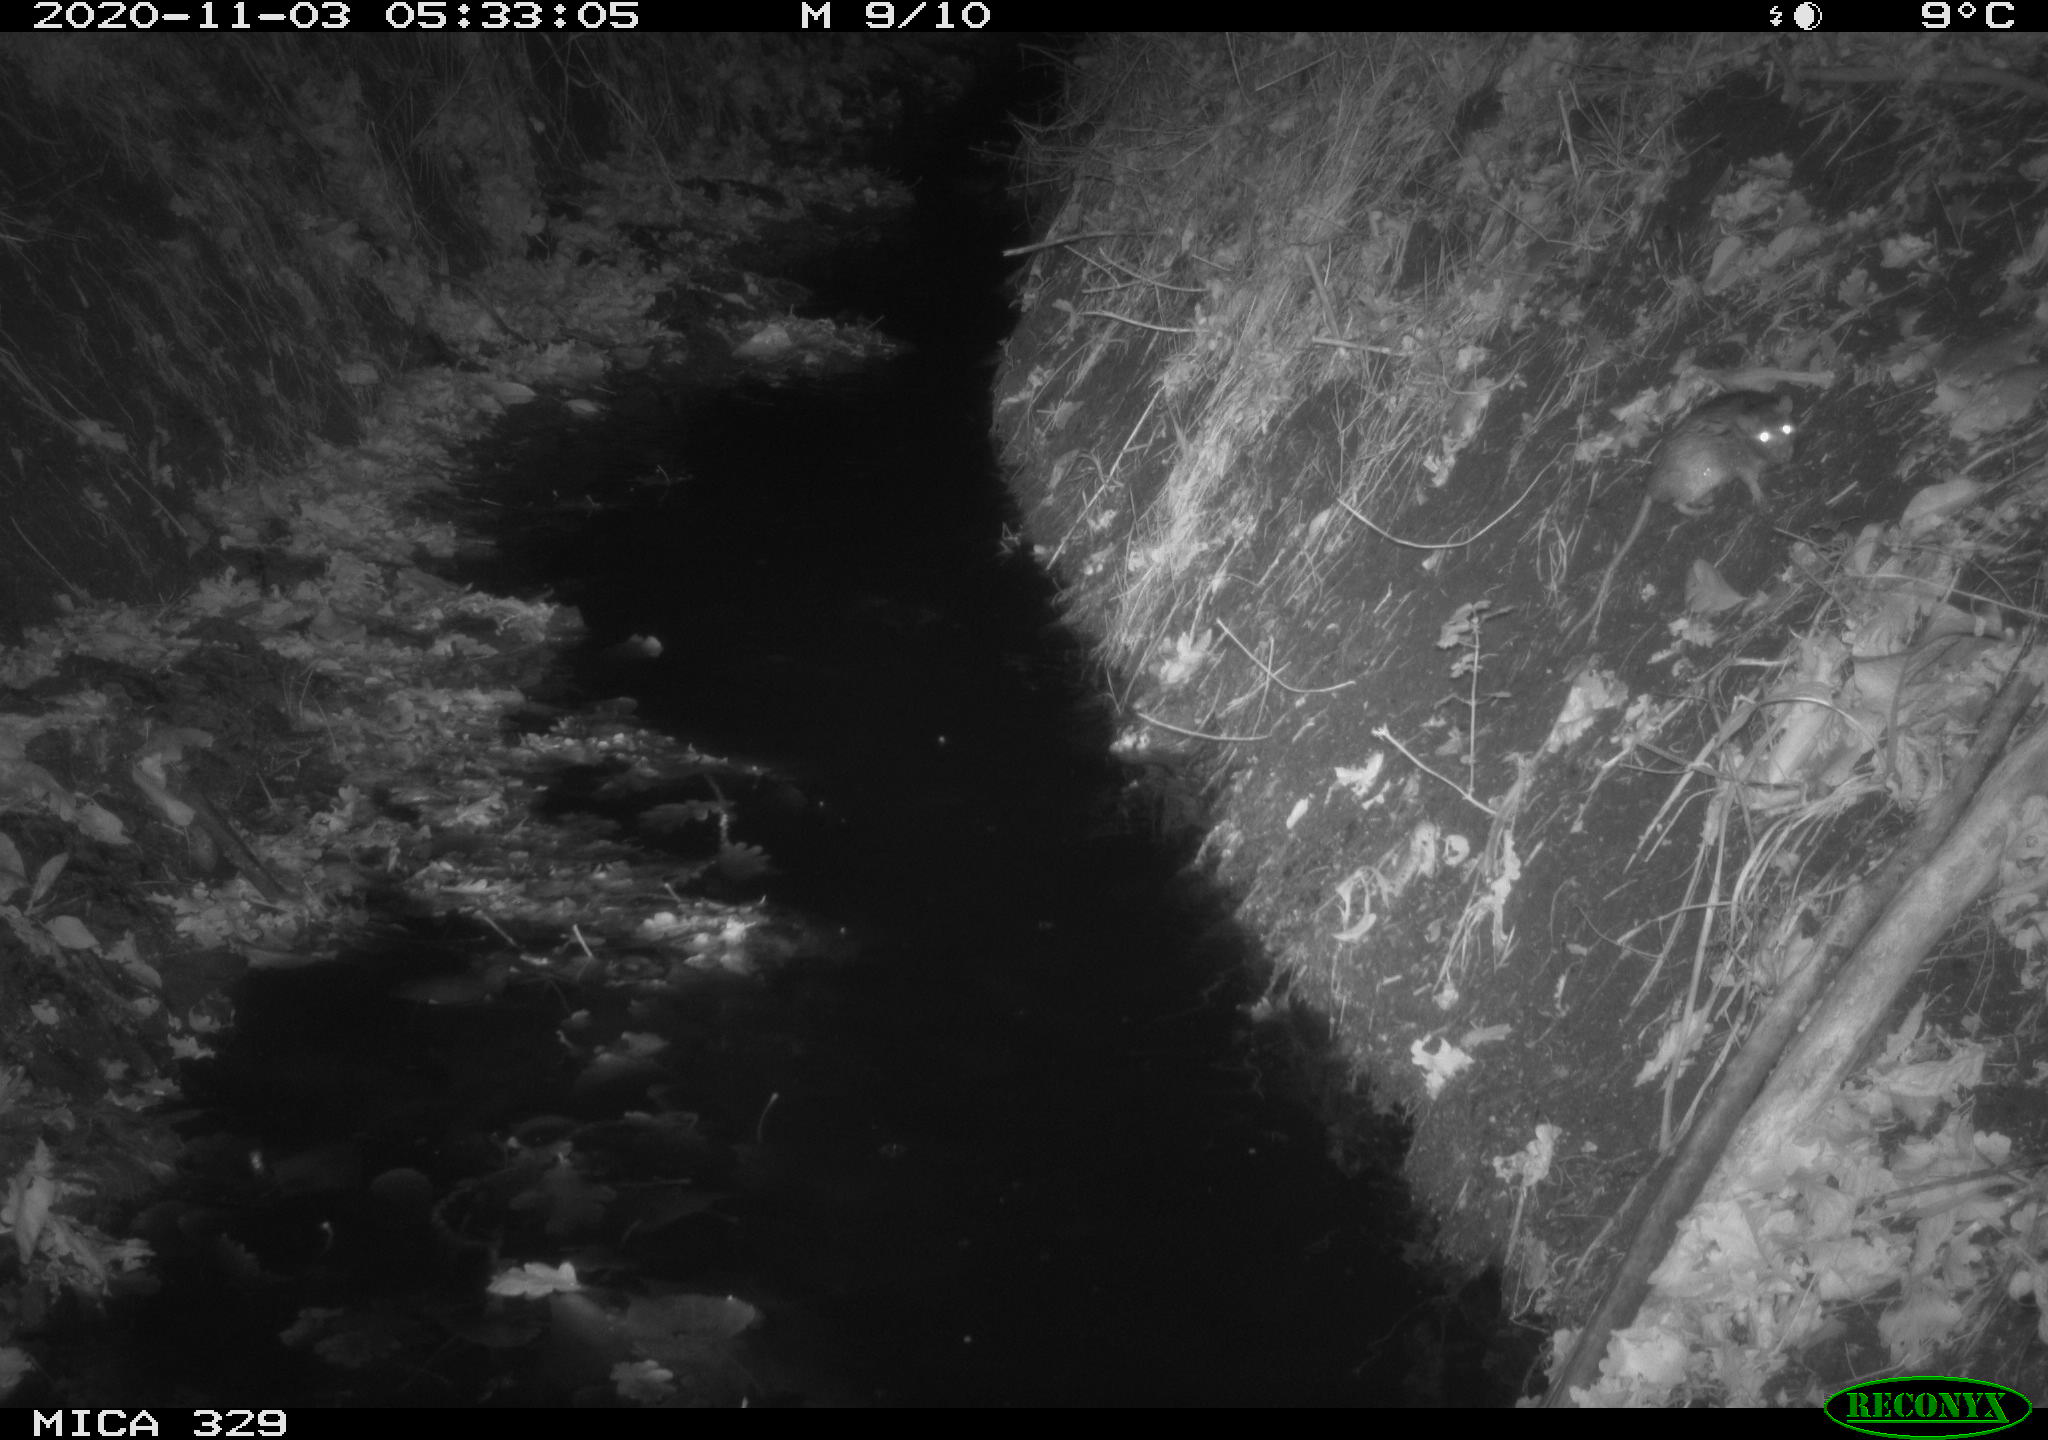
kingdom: Animalia
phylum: Chordata
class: Mammalia
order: Rodentia
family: Muridae
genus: Rattus
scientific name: Rattus norvegicus
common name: Brown rat
